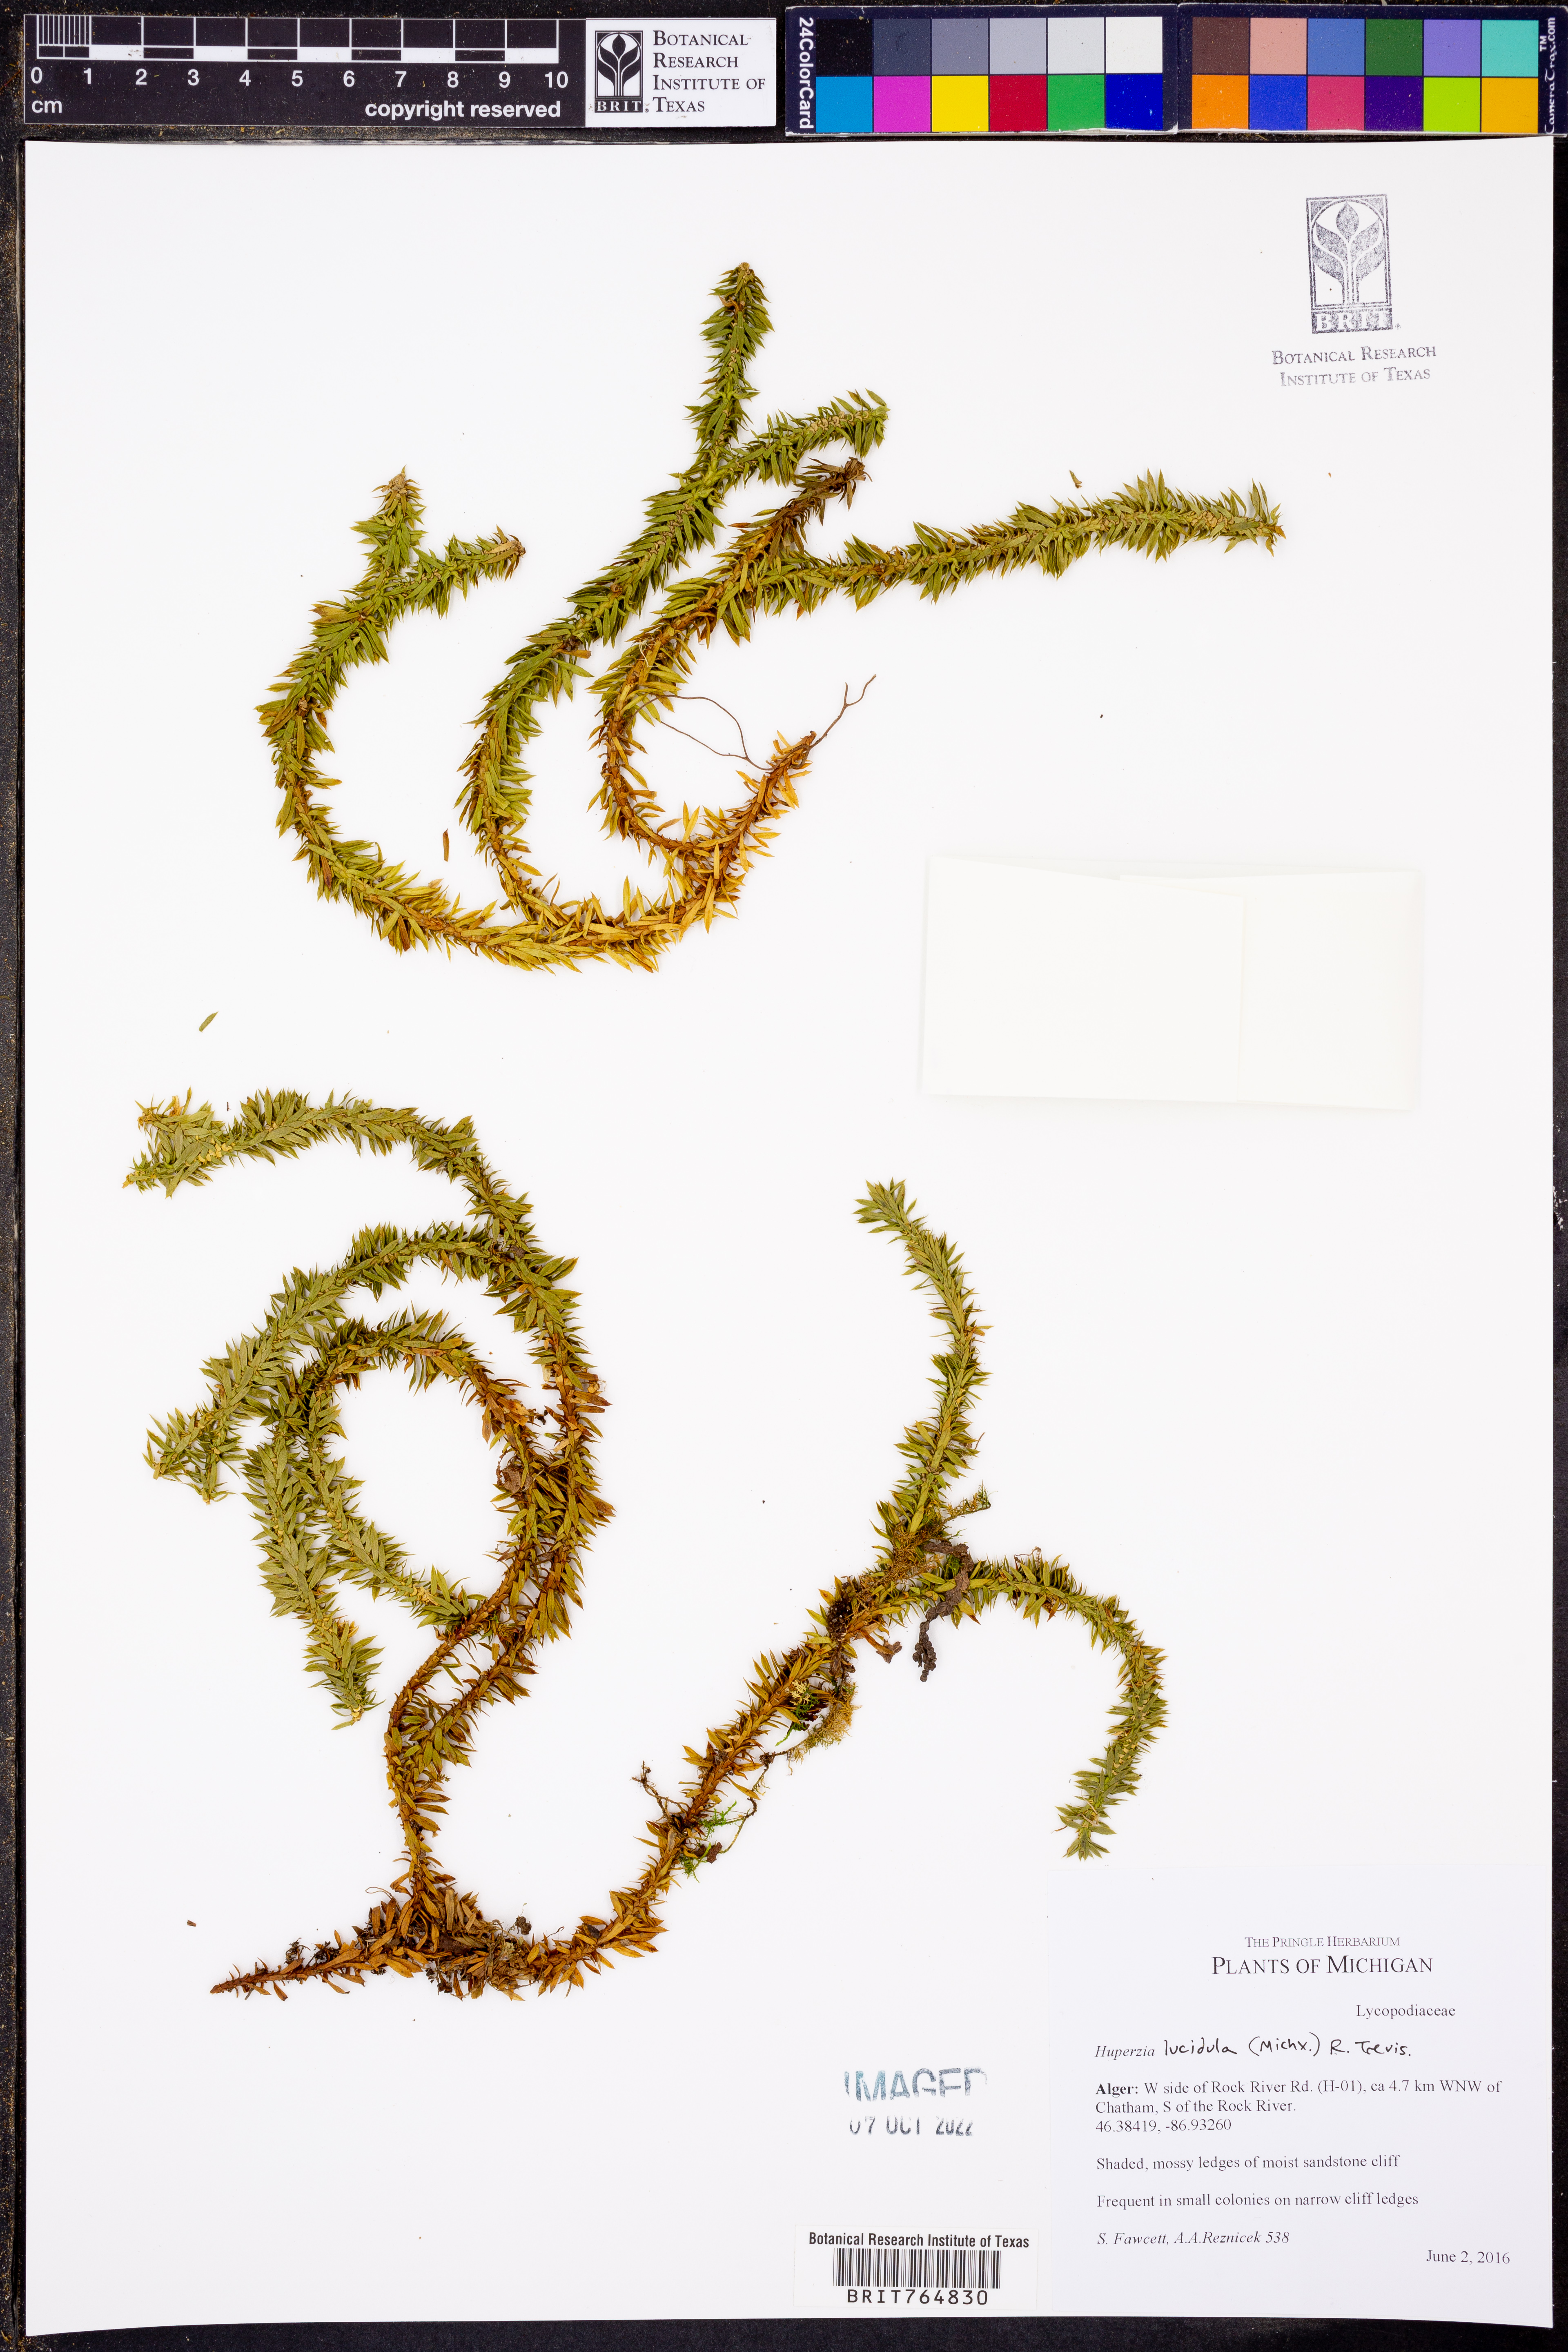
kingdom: Plantae
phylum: Tracheophyta
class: Lycopodiopsida
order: Lycopodiales
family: Lycopodiaceae
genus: Huperzia
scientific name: Huperzia lucidula
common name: Shining clubmoss
